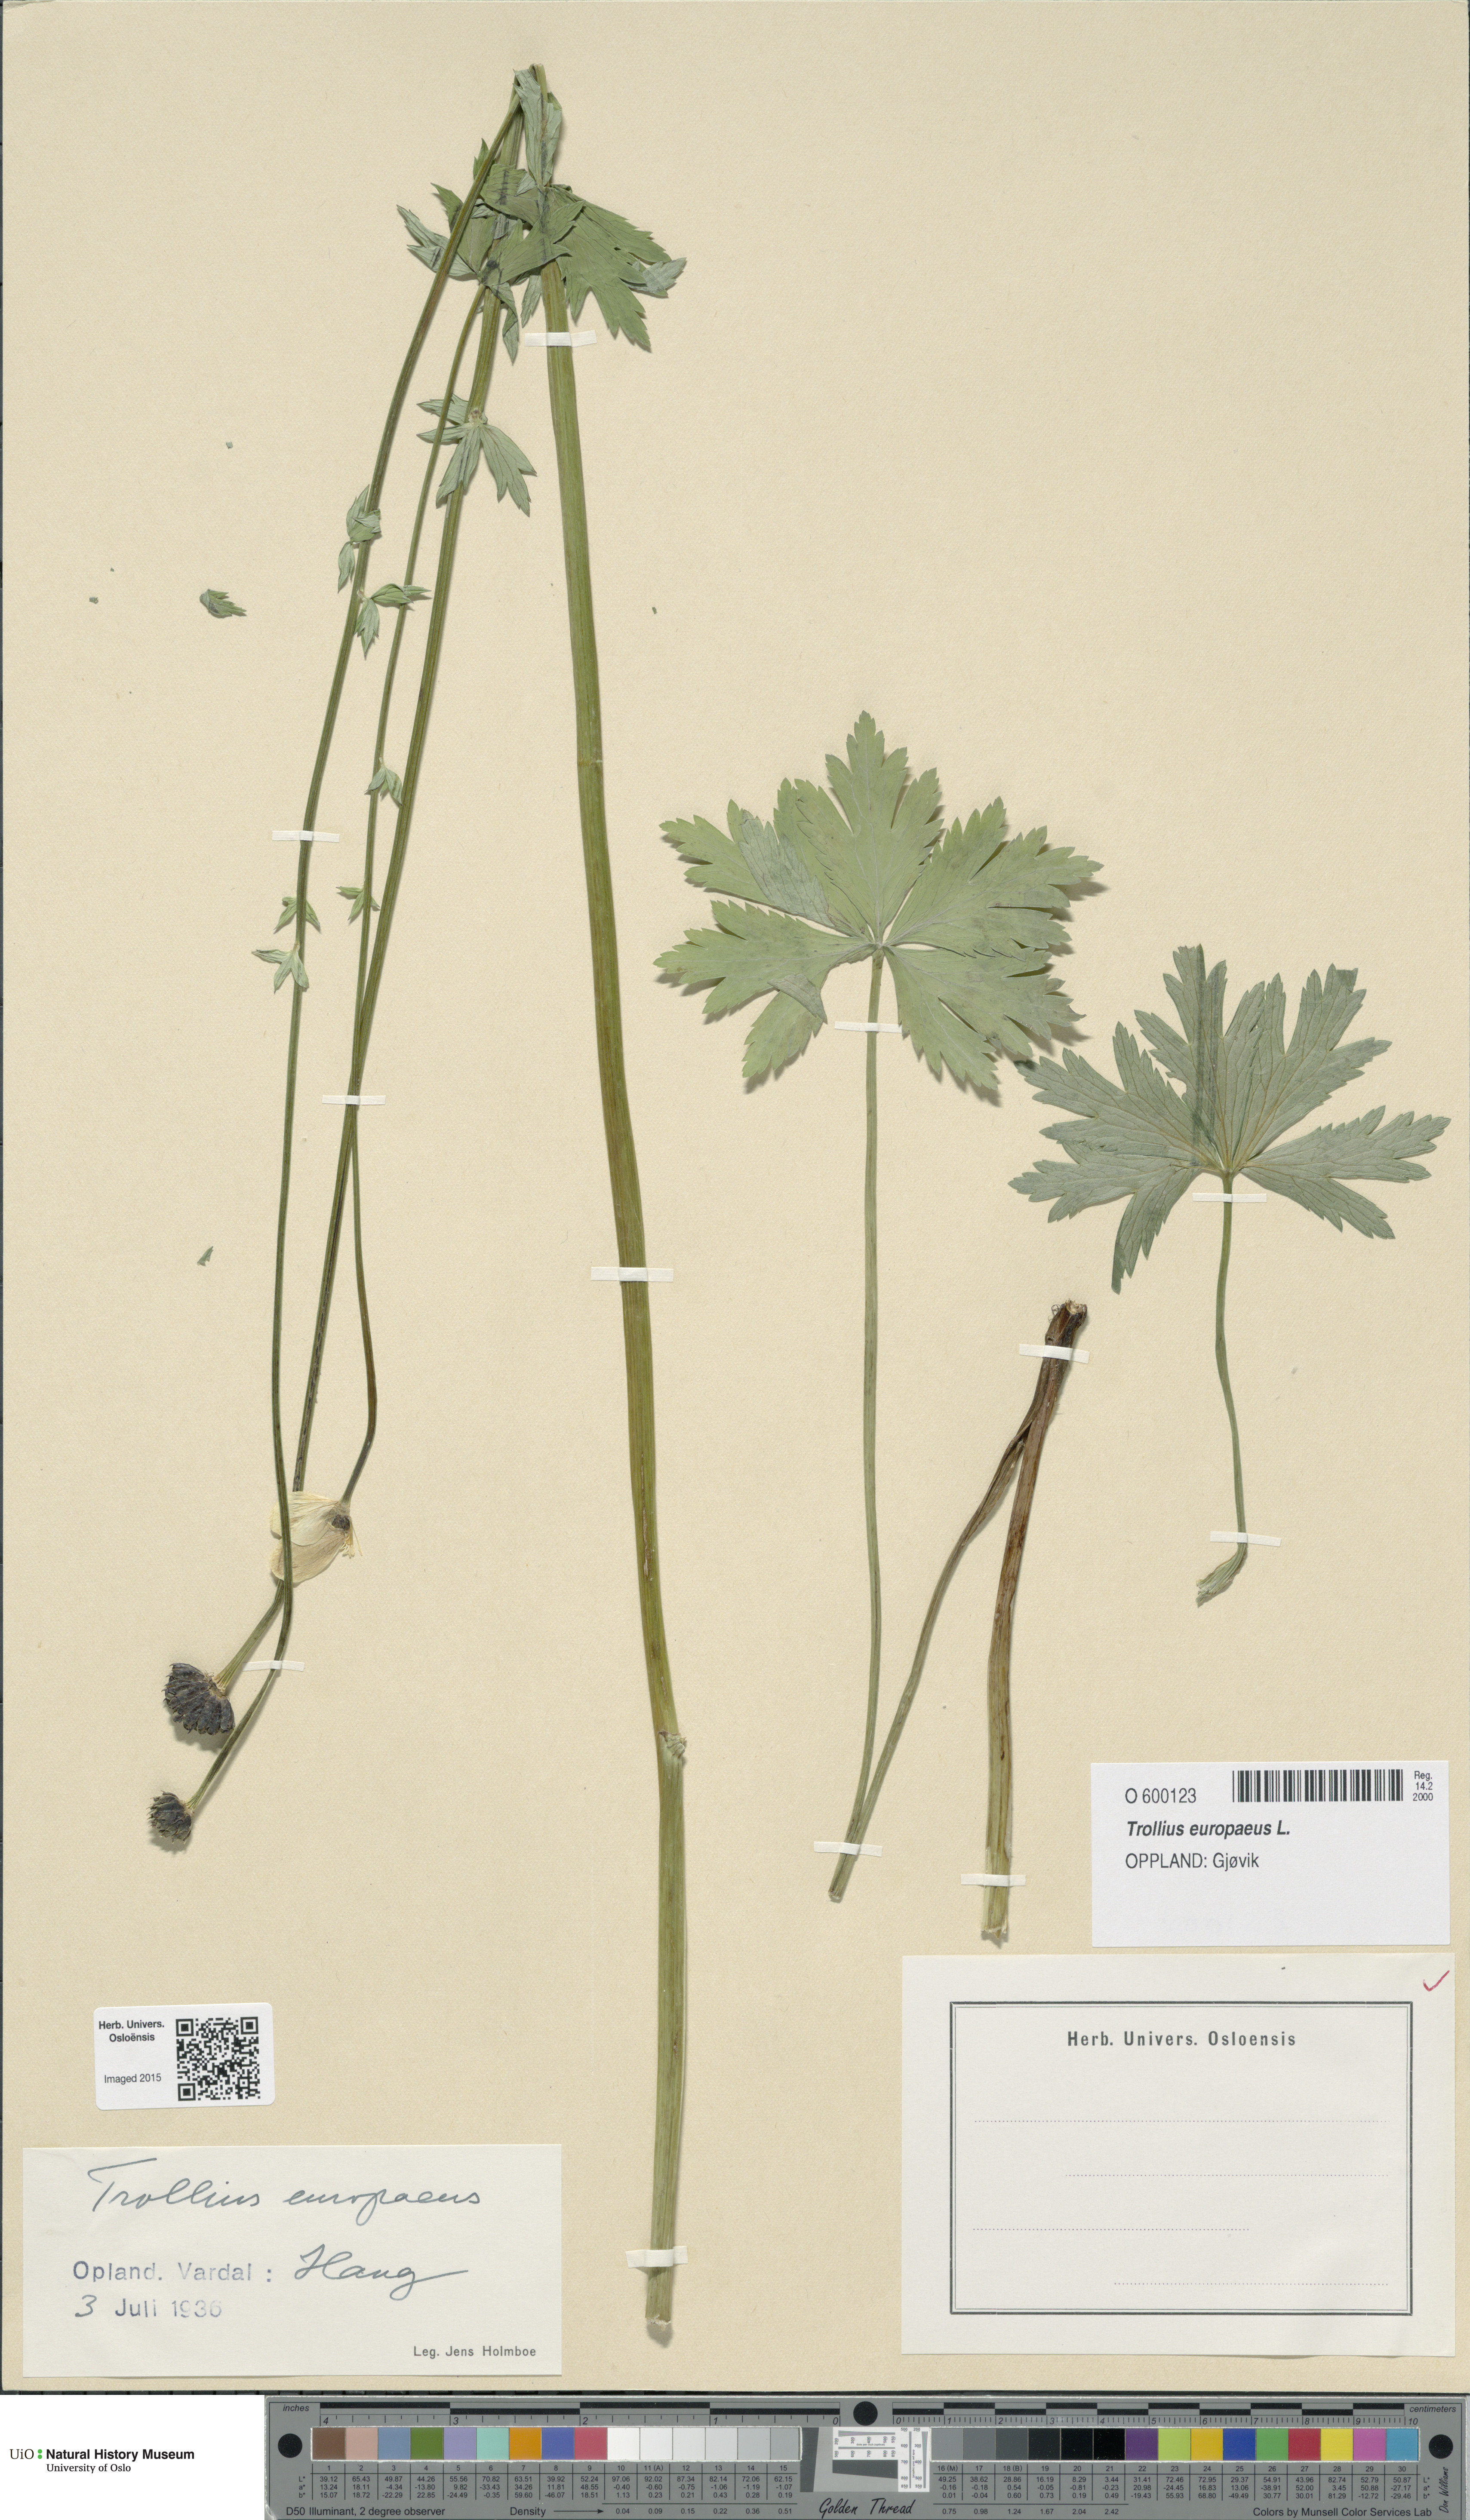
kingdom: Plantae
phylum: Tracheophyta
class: Magnoliopsida
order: Ranunculales
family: Ranunculaceae
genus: Trollius
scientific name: Trollius europaeus
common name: European globeflower
